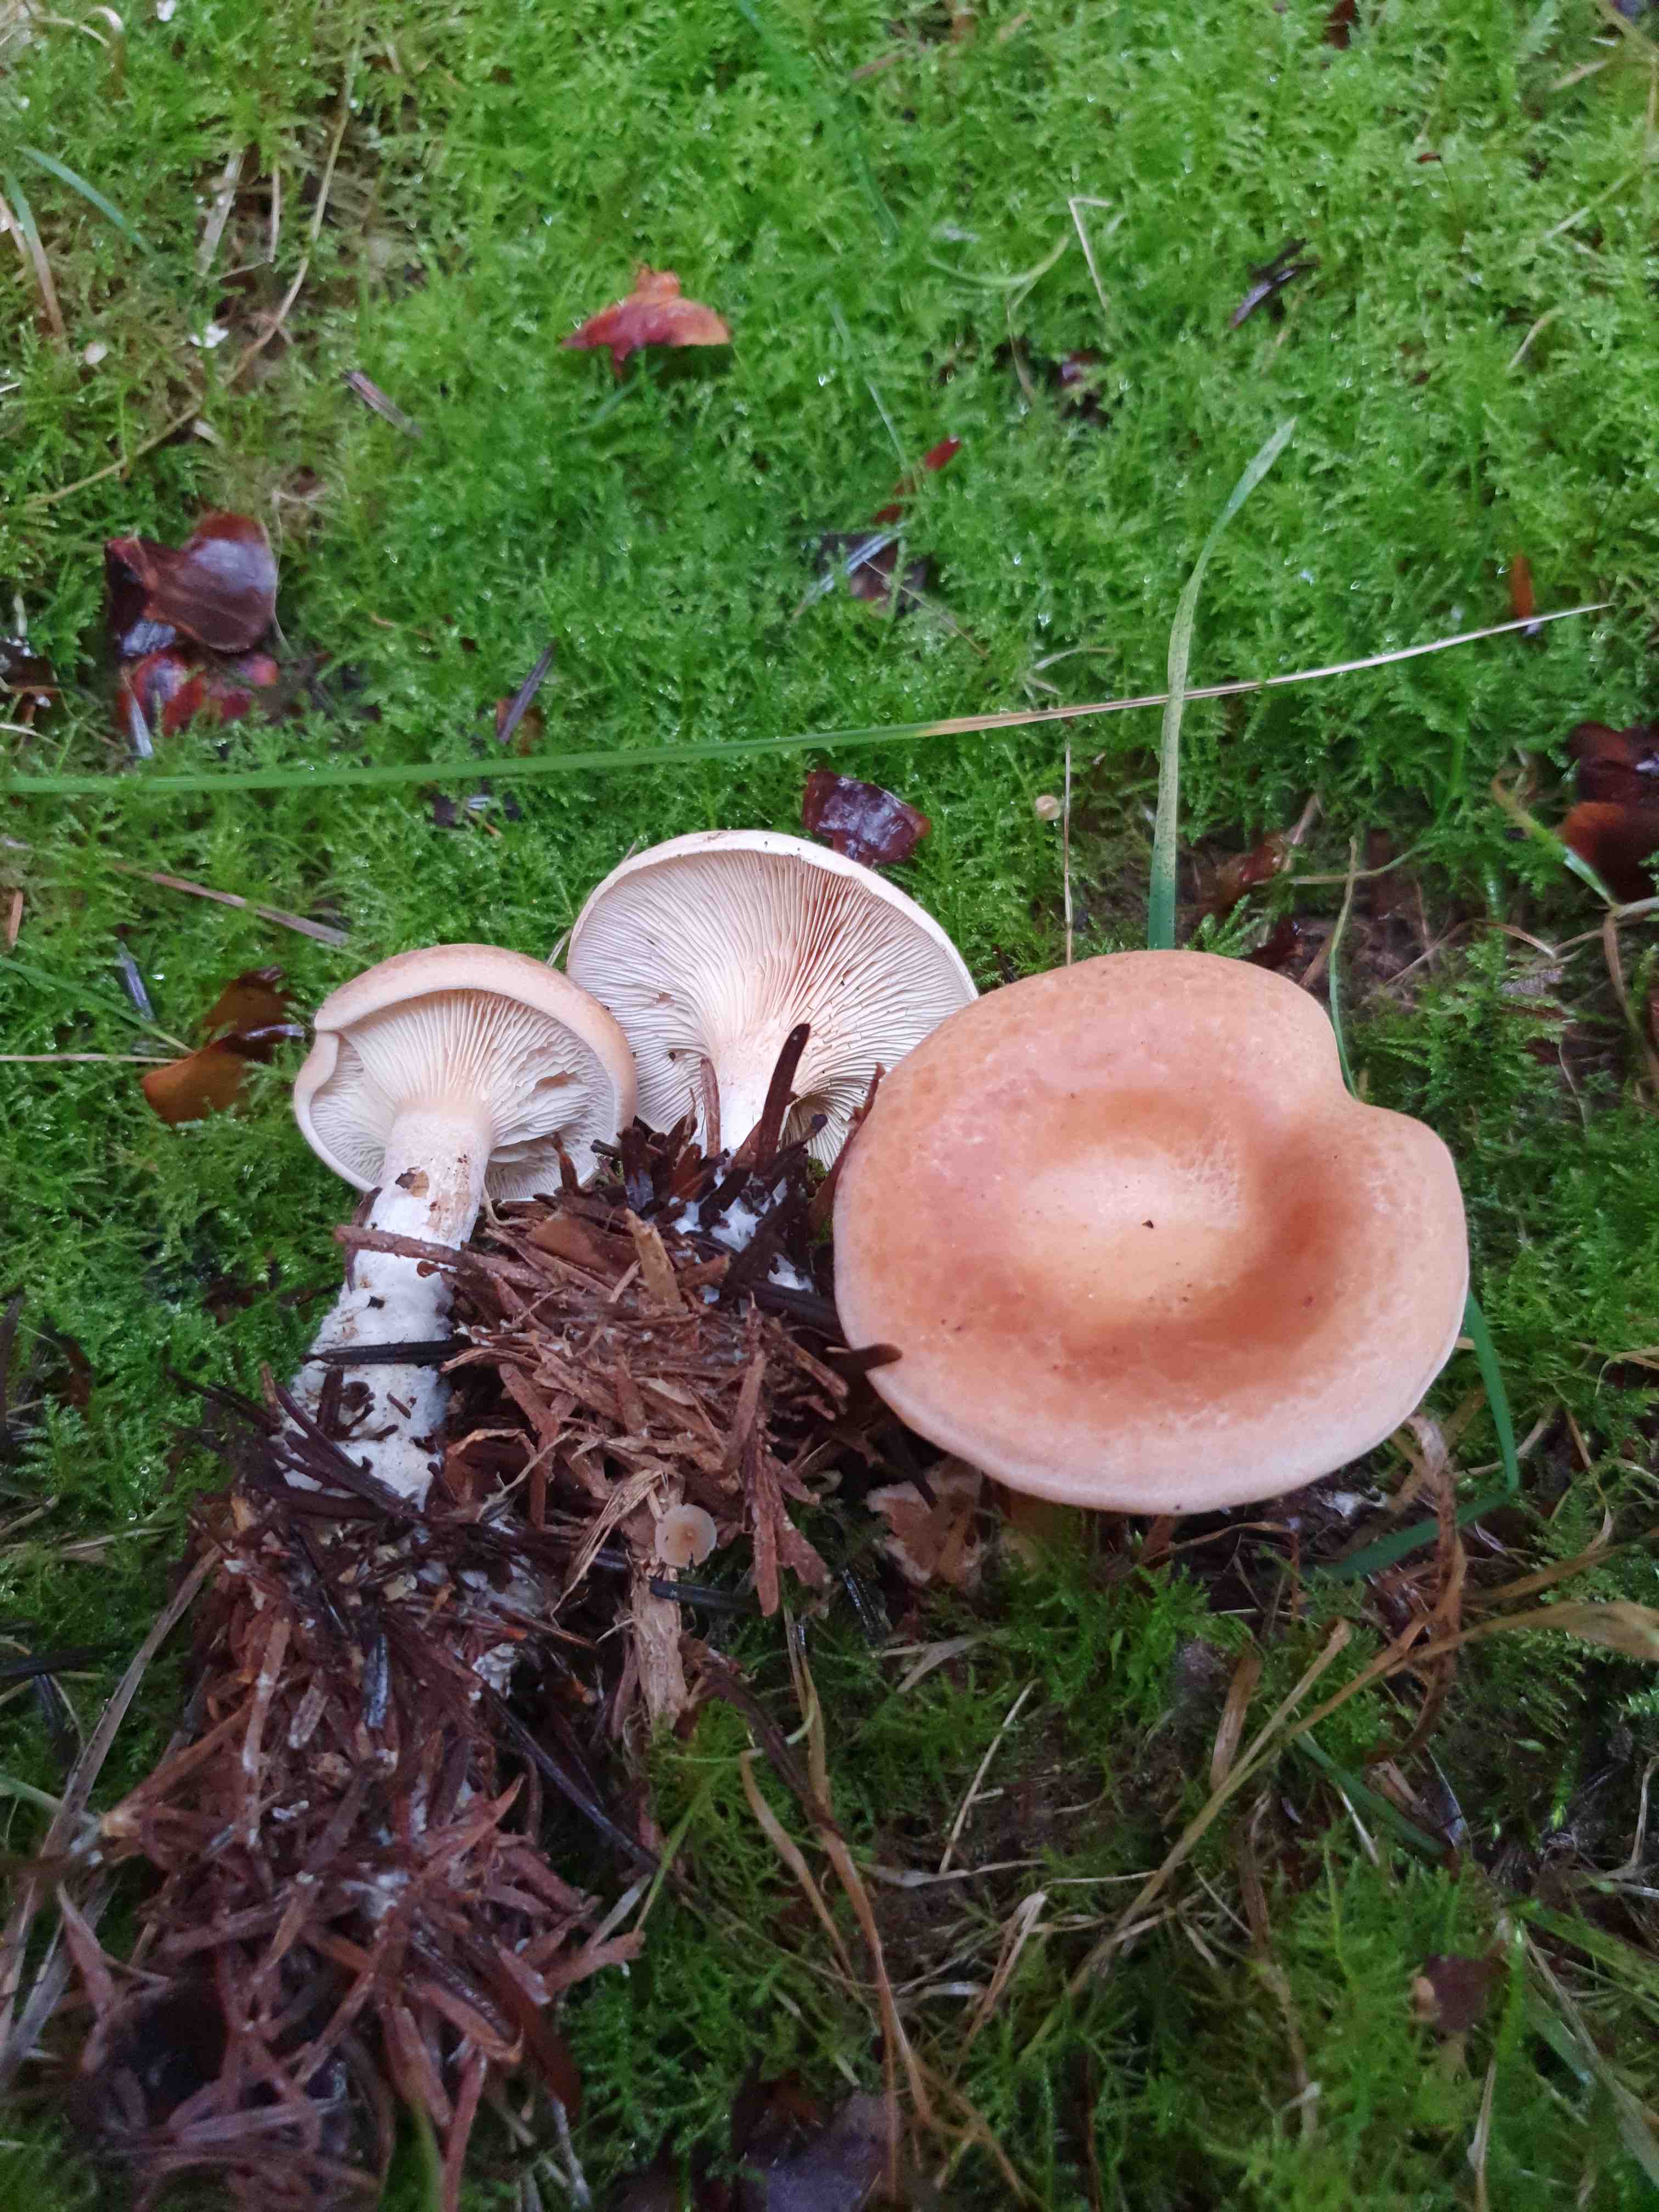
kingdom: Fungi
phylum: Basidiomycota
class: Agaricomycetes
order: Agaricales
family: Tricholomataceae
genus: Paralepista
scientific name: Paralepista gilva
